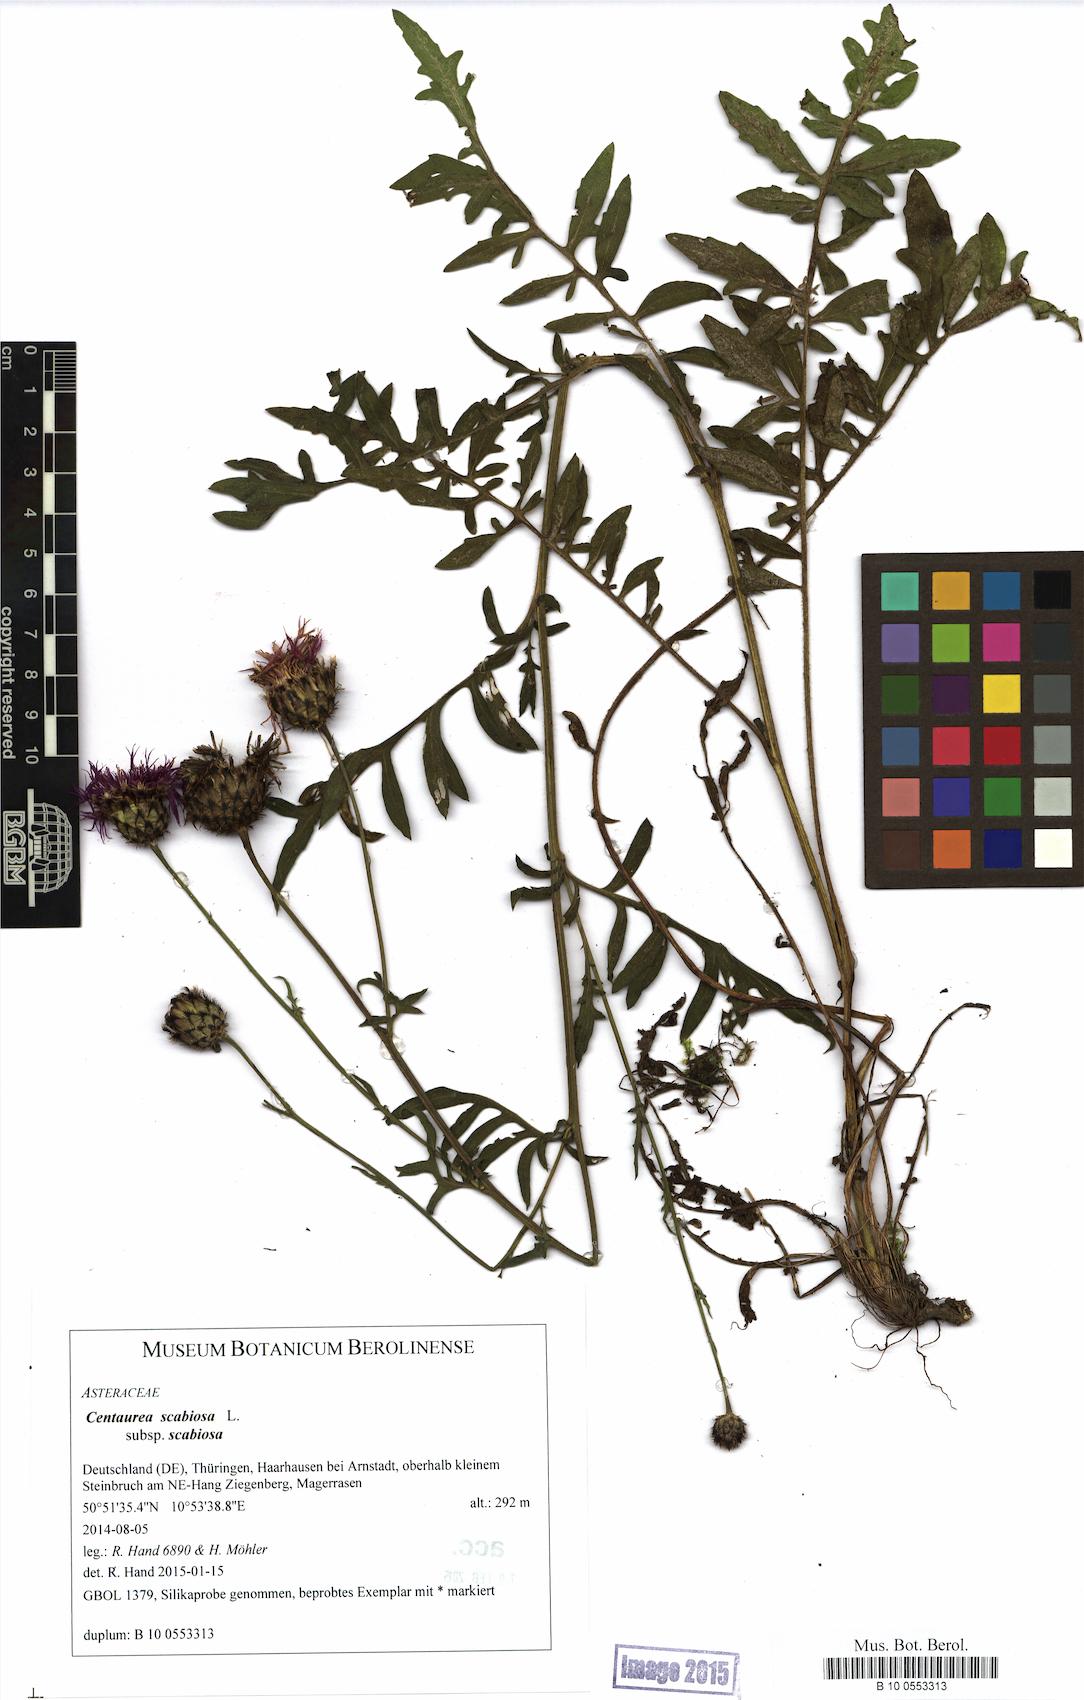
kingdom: Plantae
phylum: Tracheophyta
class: Magnoliopsida
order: Asterales
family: Asteraceae
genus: Centaurea
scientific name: Centaurea scabiosa
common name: Greater knapweed
